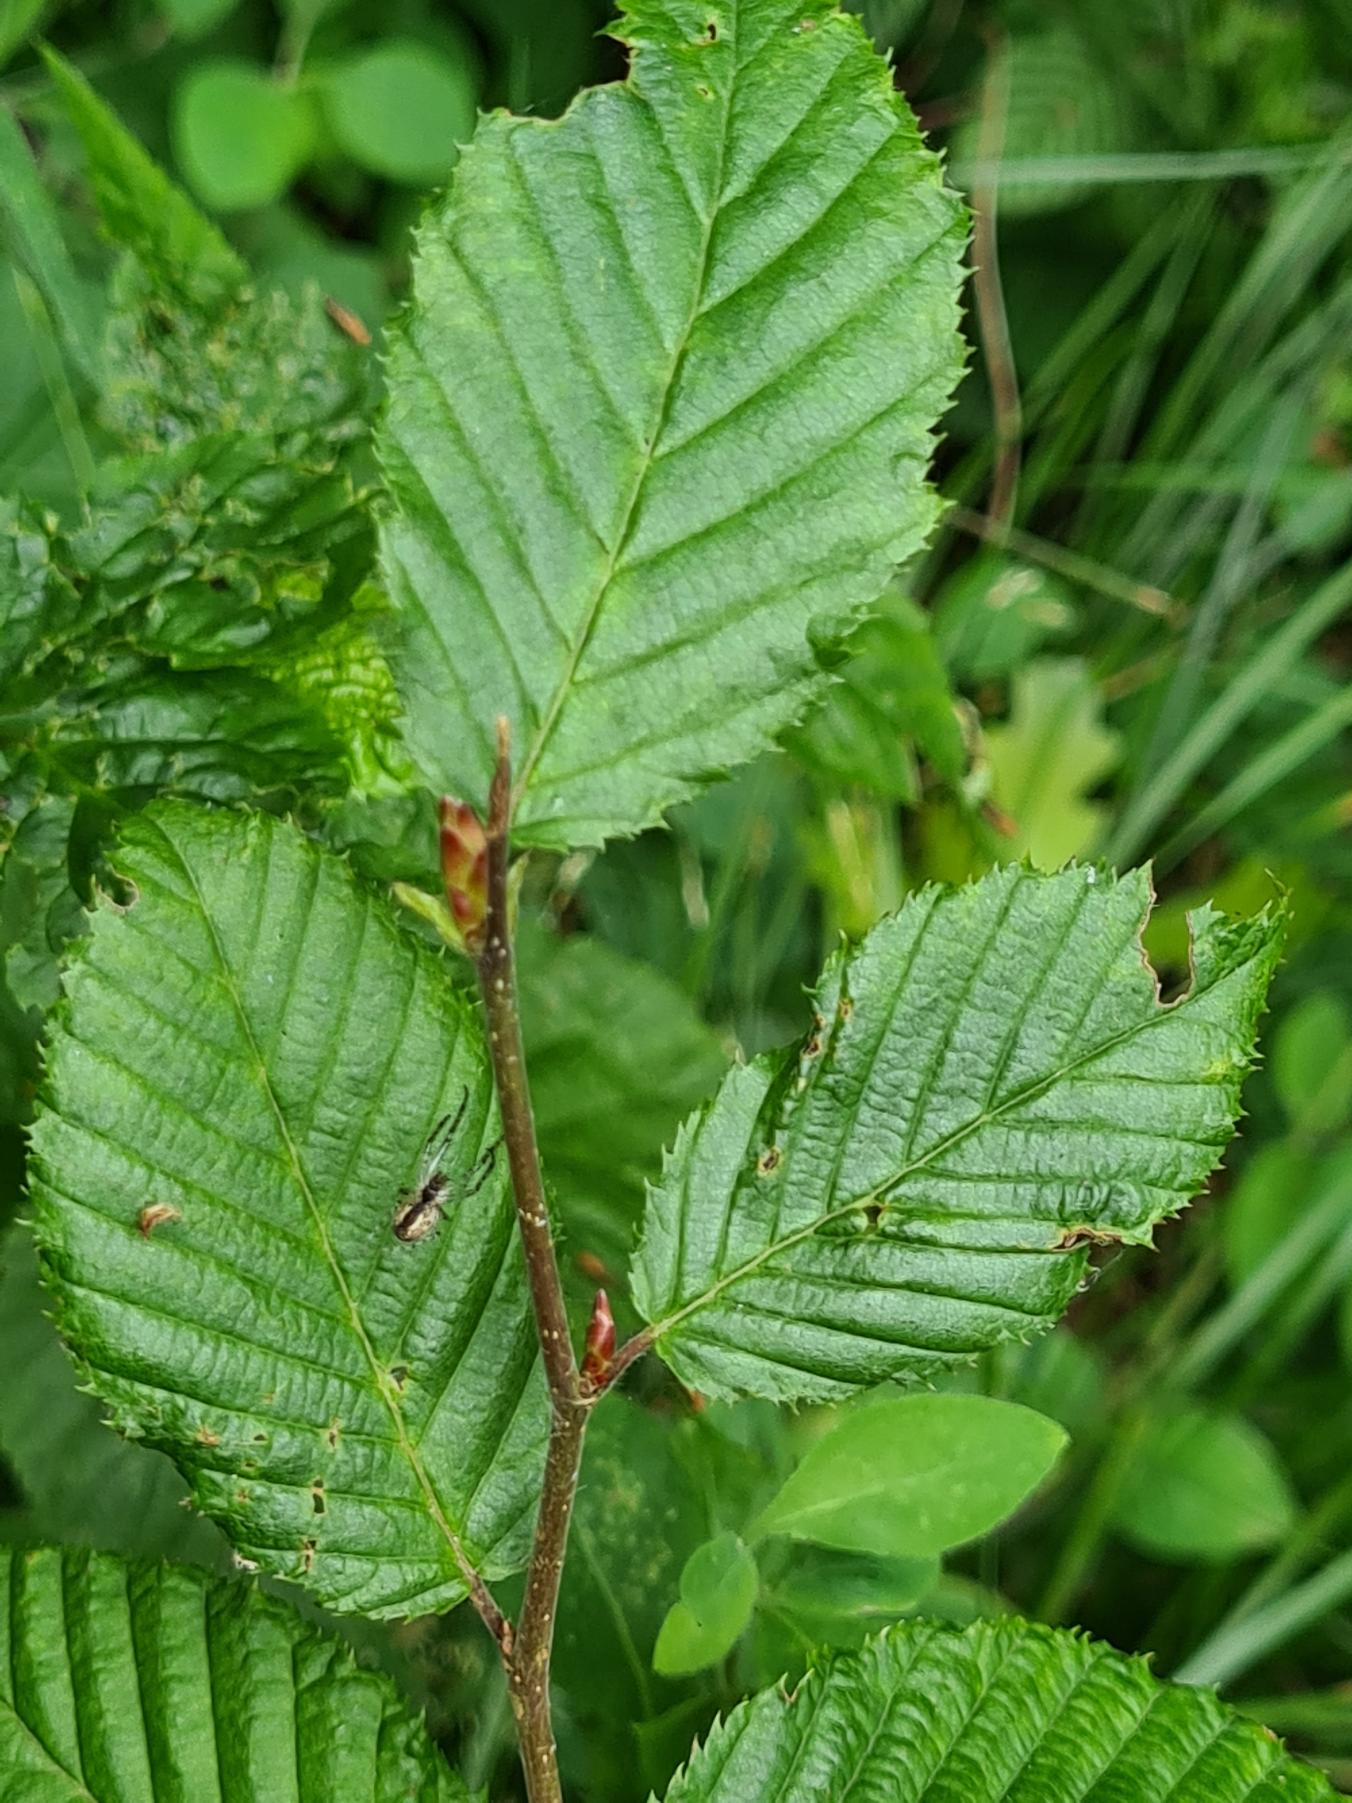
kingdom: Plantae
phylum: Tracheophyta
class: Magnoliopsida
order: Fagales
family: Betulaceae
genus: Carpinus
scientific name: Carpinus betulus
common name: Avnbøg
